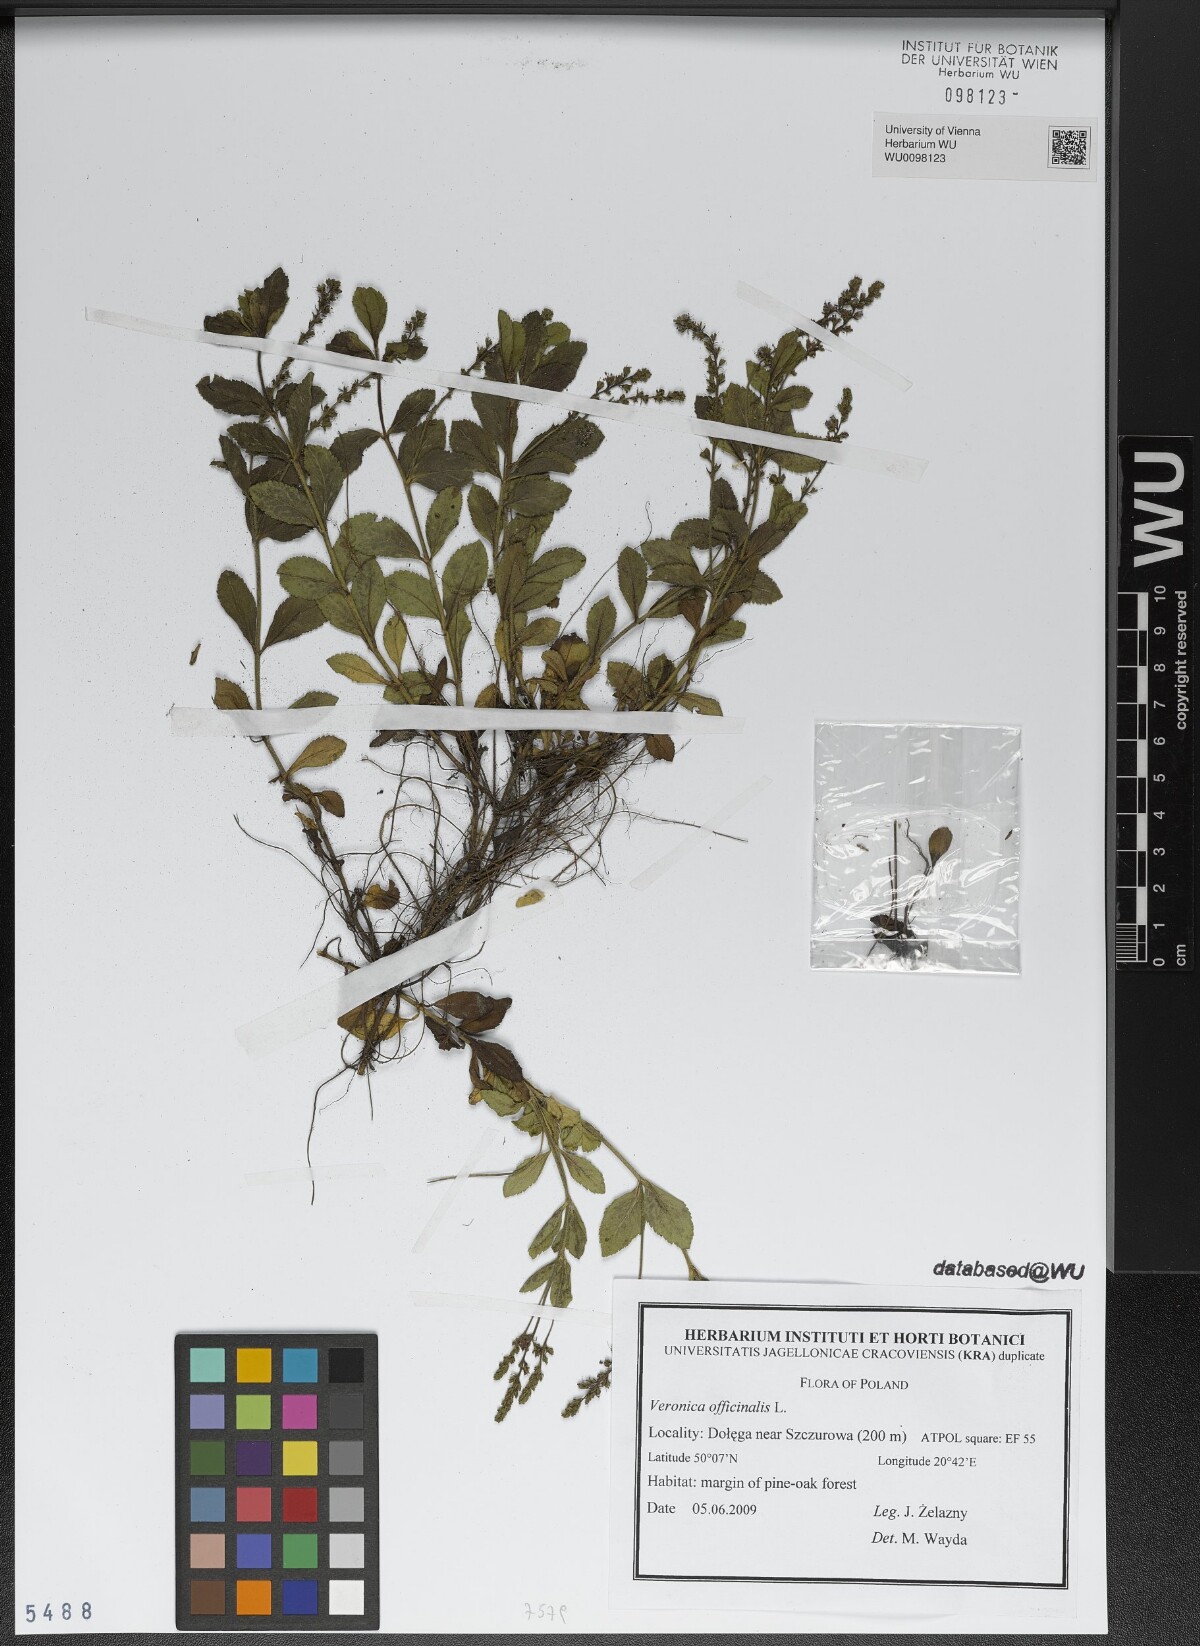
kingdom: Plantae
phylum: Tracheophyta
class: Magnoliopsida
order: Lamiales
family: Plantaginaceae
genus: Veronica
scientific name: Veronica officinalis
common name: Common speedwell
